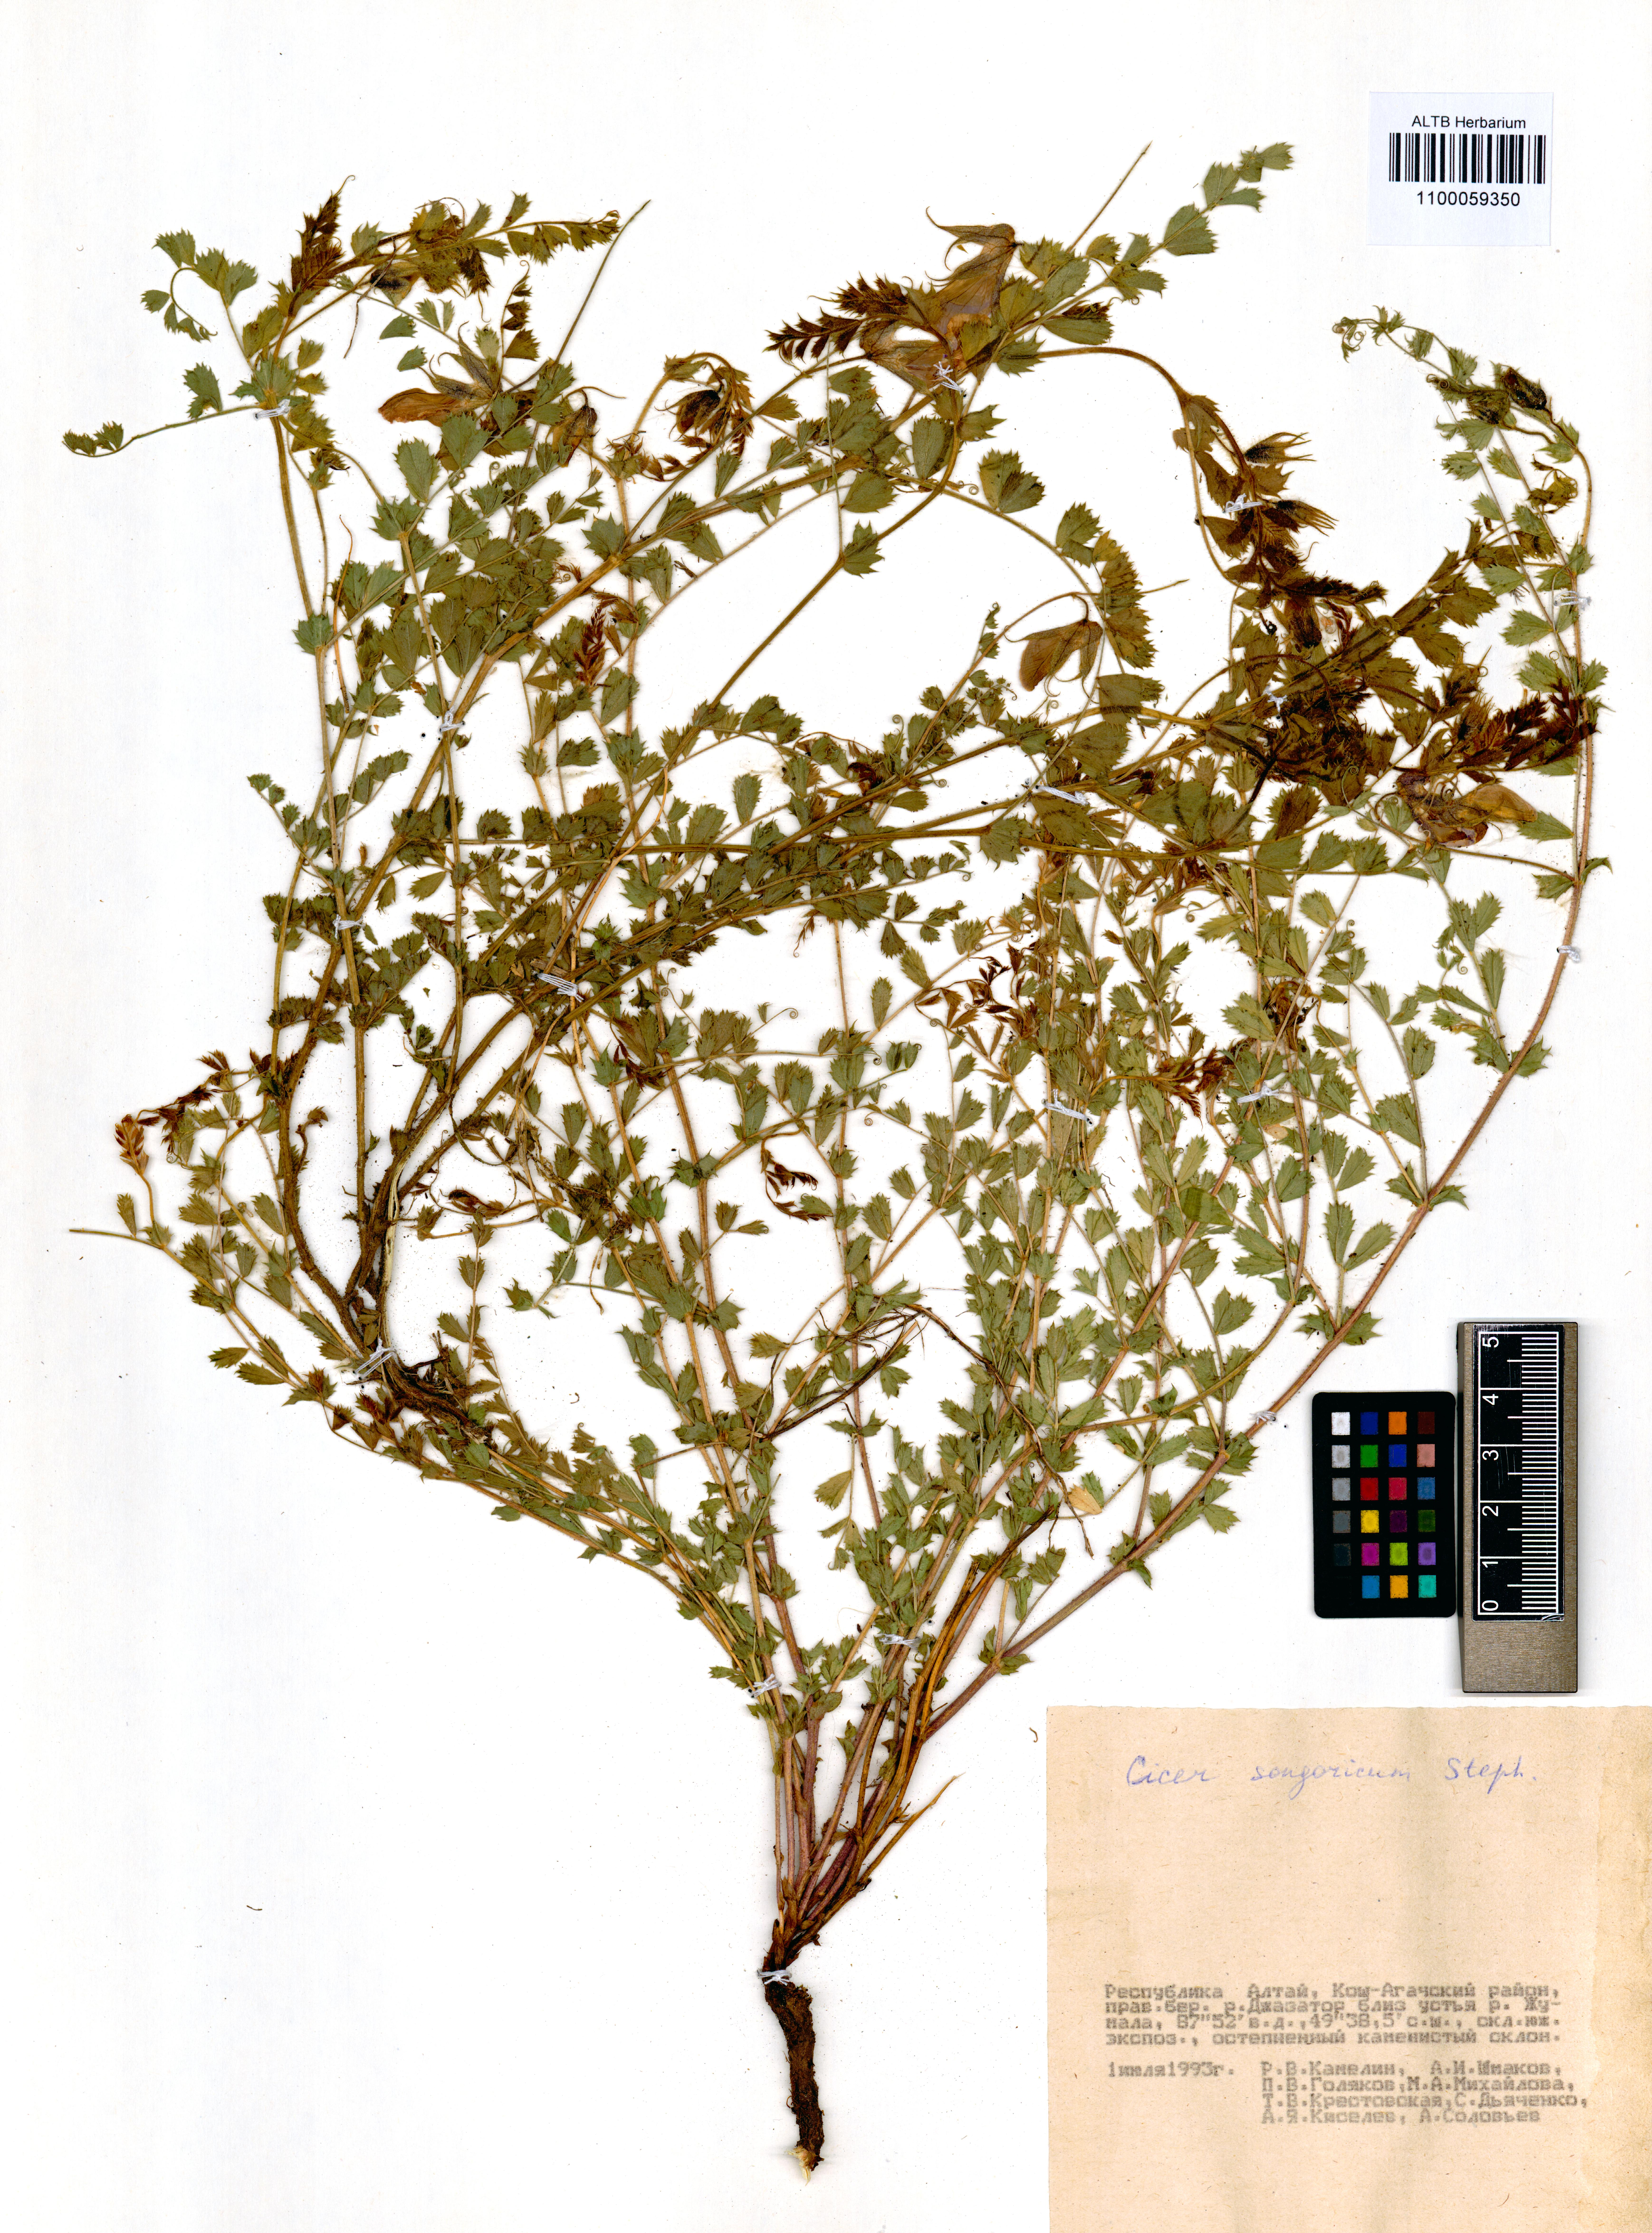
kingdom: Plantae
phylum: Tracheophyta
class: Magnoliopsida
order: Fabales
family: Fabaceae
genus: Cicer
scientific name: Cicer songaricum
